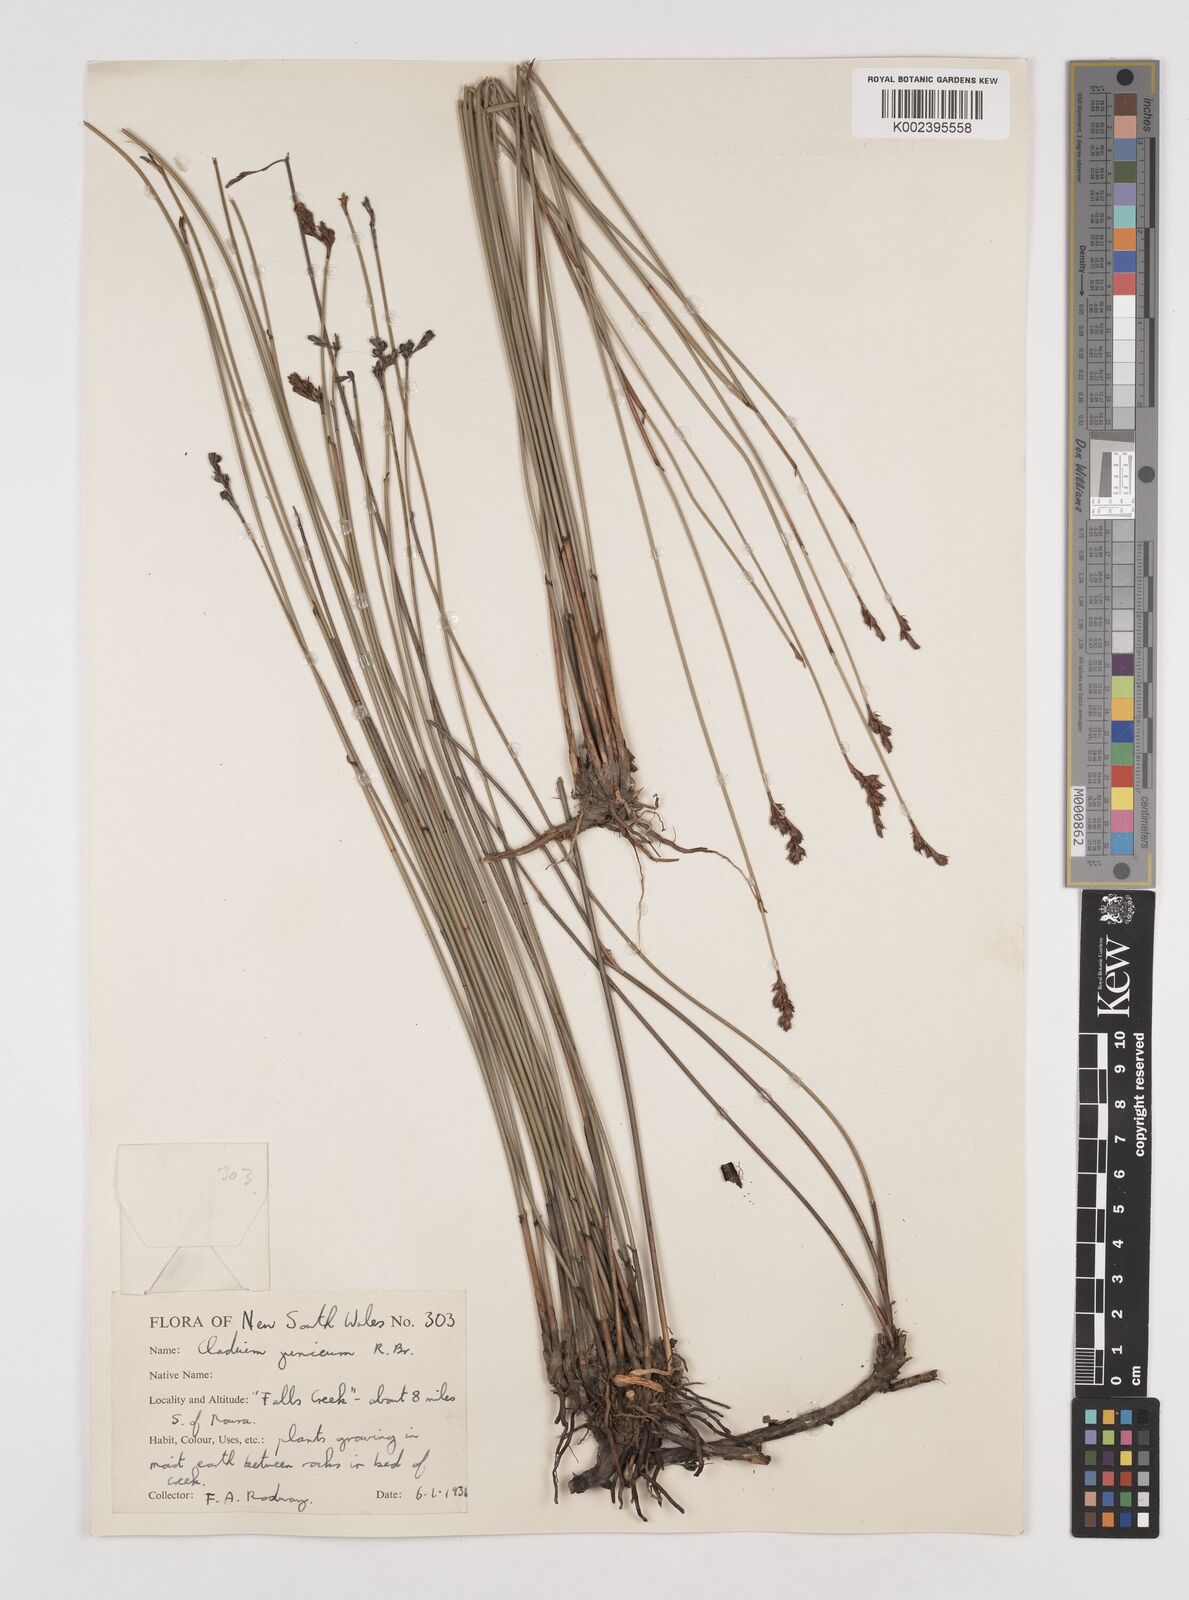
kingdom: Plantae
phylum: Tracheophyta
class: Liliopsida
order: Poales
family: Cyperaceae
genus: Machaerina
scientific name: Machaerina juncea
